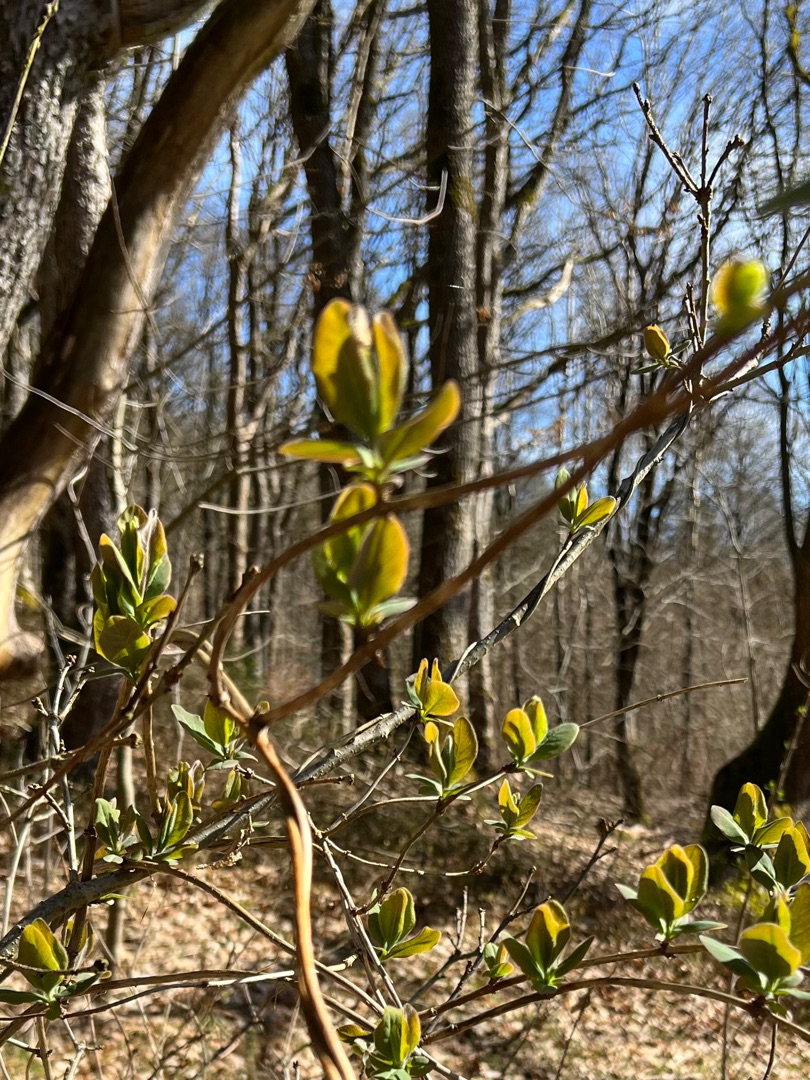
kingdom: Plantae
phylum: Tracheophyta
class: Magnoliopsida
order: Dipsacales
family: Caprifoliaceae
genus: Lonicera
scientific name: Lonicera periclymenum
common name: Almindelig gedeblad
